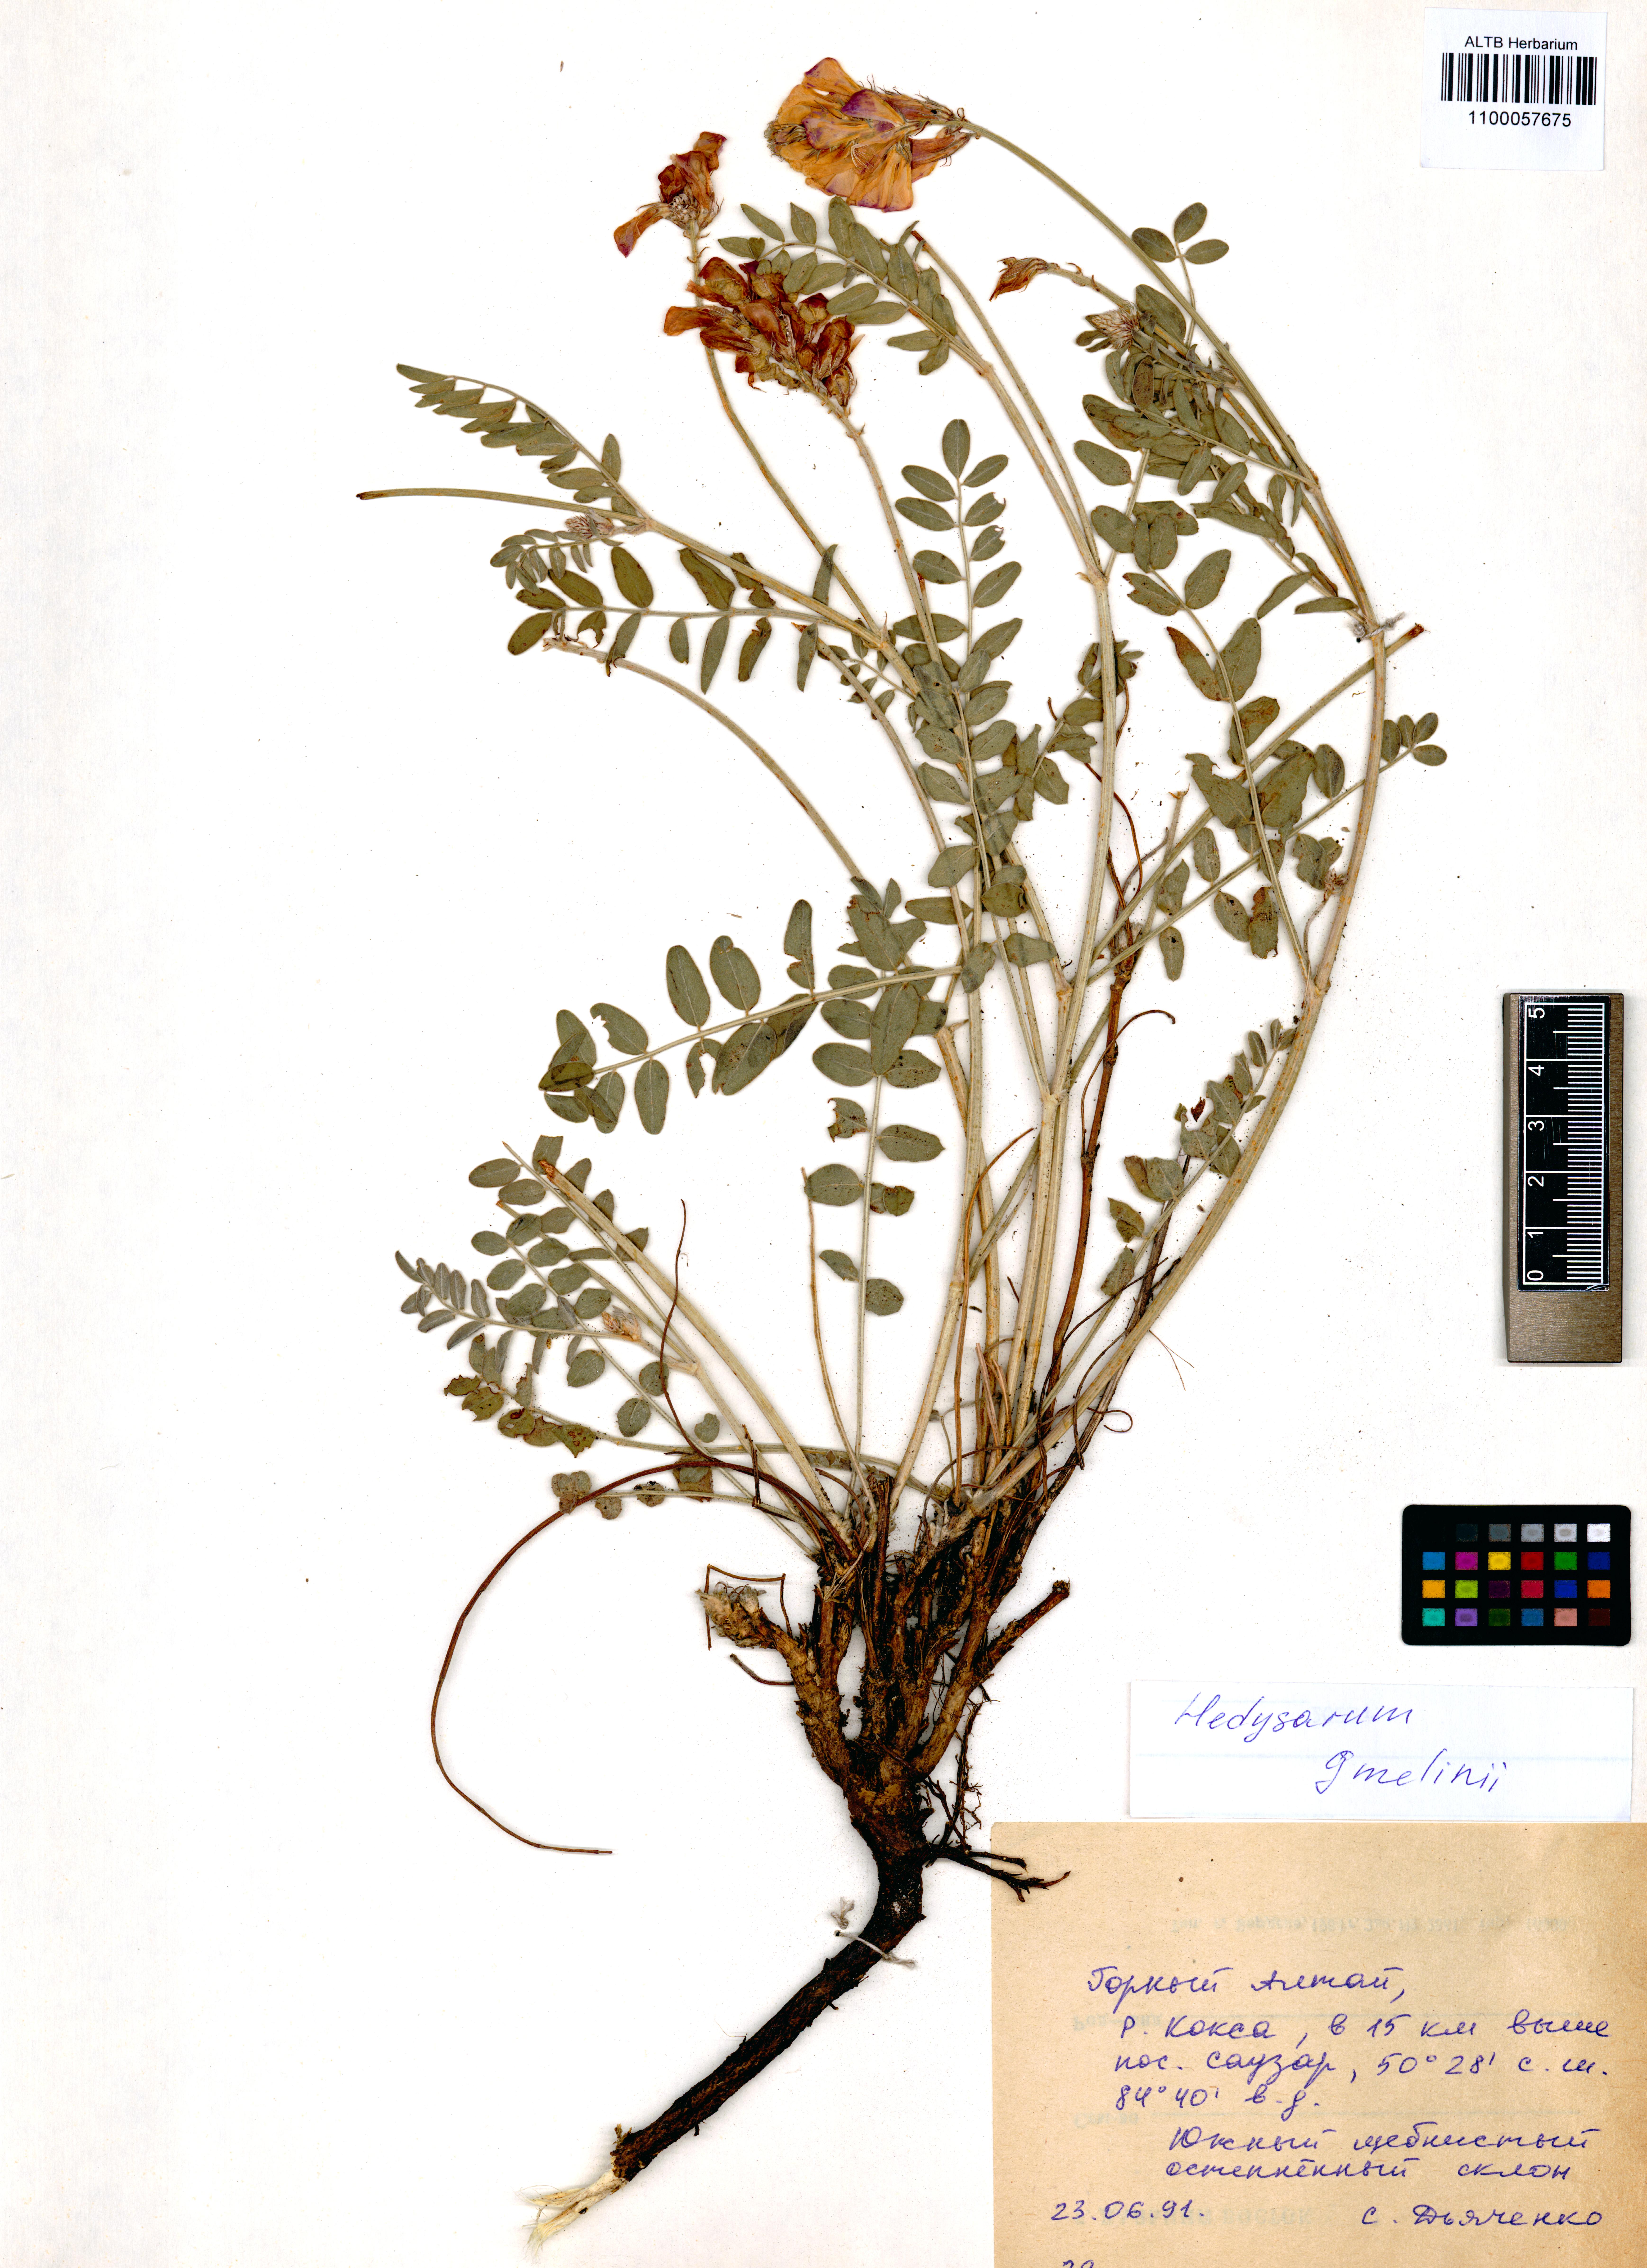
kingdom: Plantae
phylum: Tracheophyta
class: Magnoliopsida
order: Fabales
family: Fabaceae
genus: Hedysarum
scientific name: Hedysarum gmelinii
